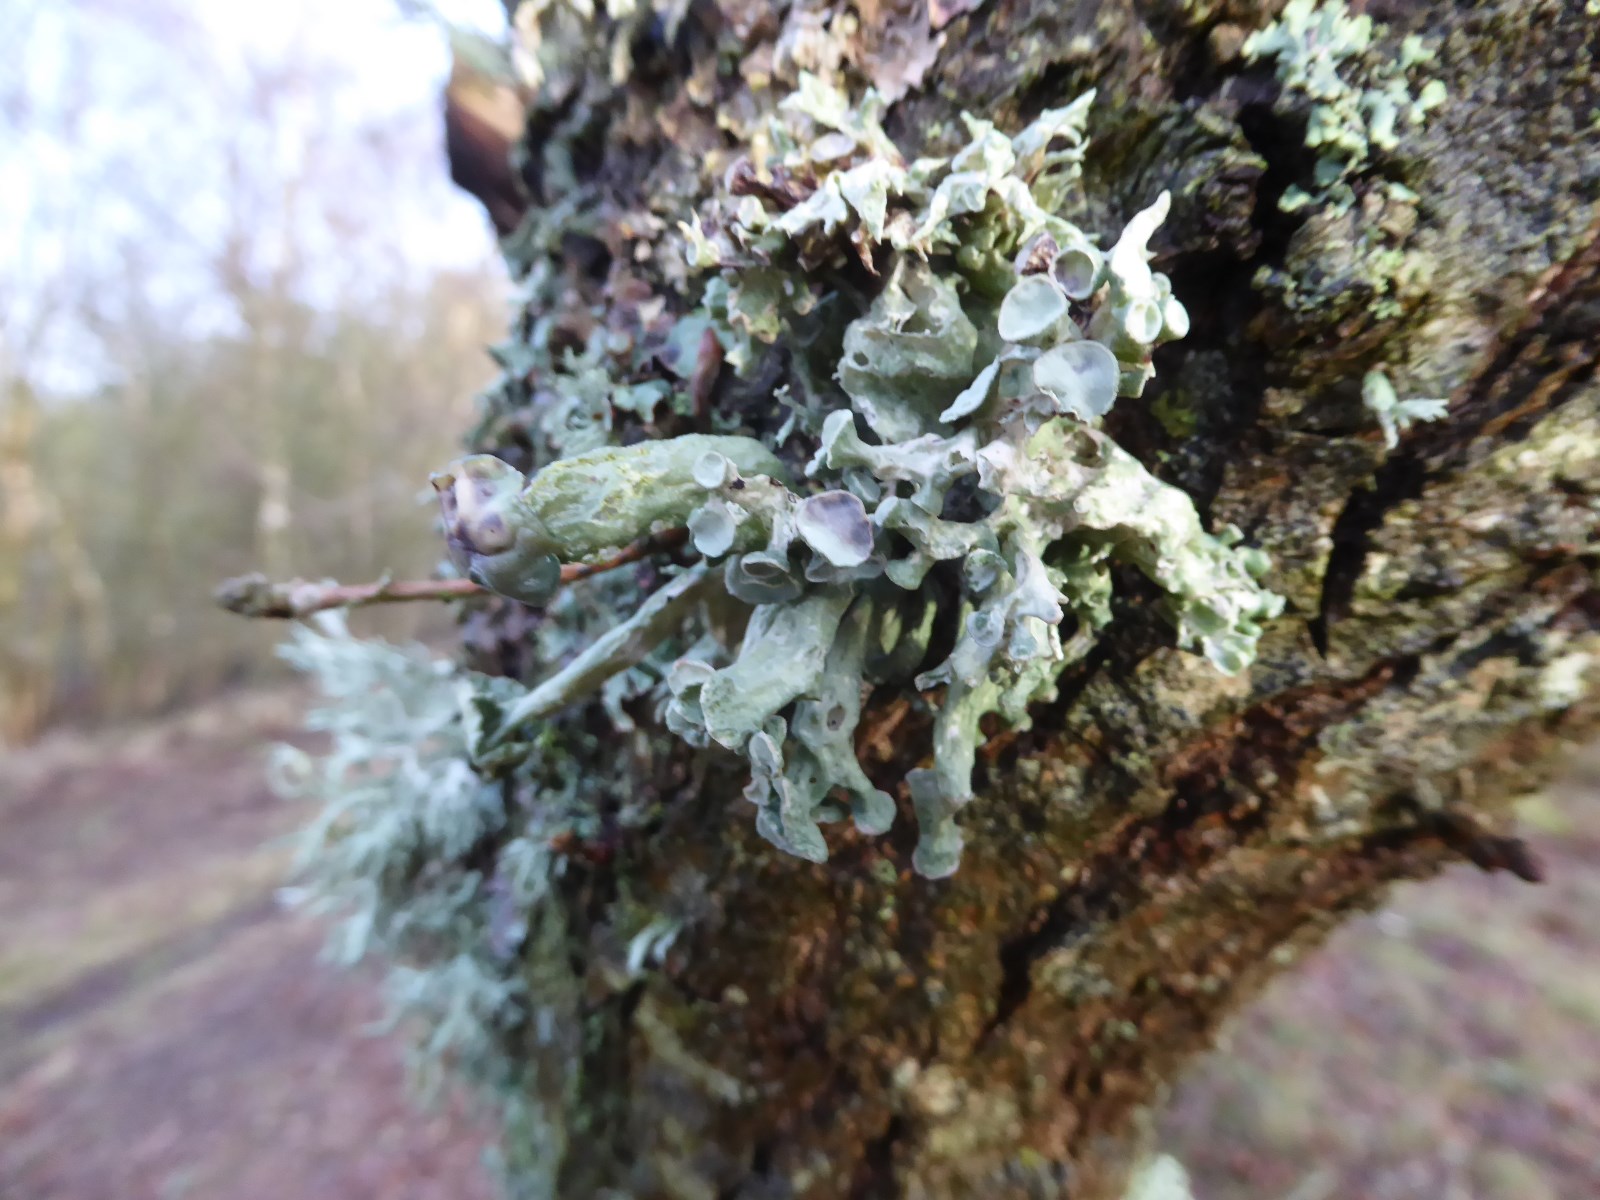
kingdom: Fungi
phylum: Ascomycota
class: Lecanoromycetes
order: Lecanorales
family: Ramalinaceae
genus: Ramalina
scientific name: Ramalina fastigiata
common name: tue-grenlav
